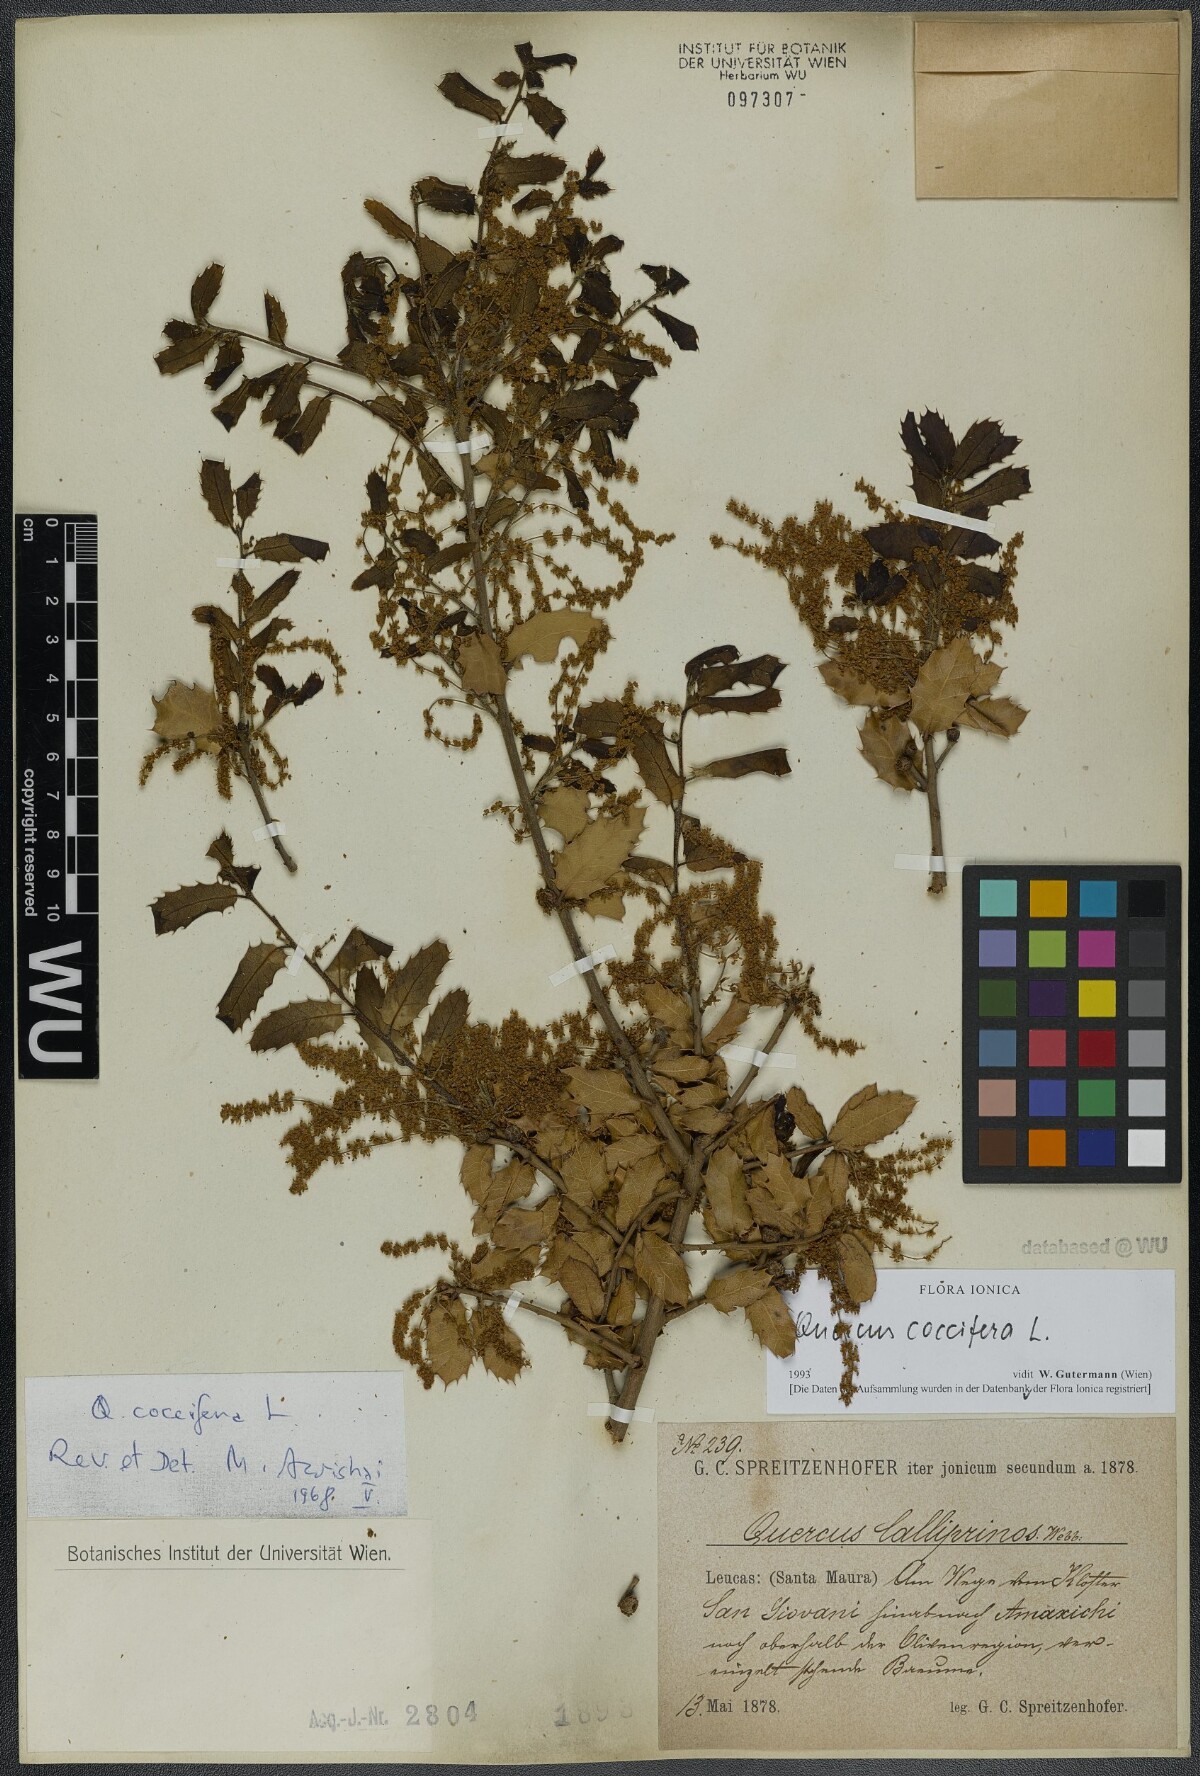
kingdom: Plantae
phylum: Tracheophyta
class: Magnoliopsida
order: Fagales
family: Fagaceae
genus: Quercus
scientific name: Quercus coccifera
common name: Kermes oak
